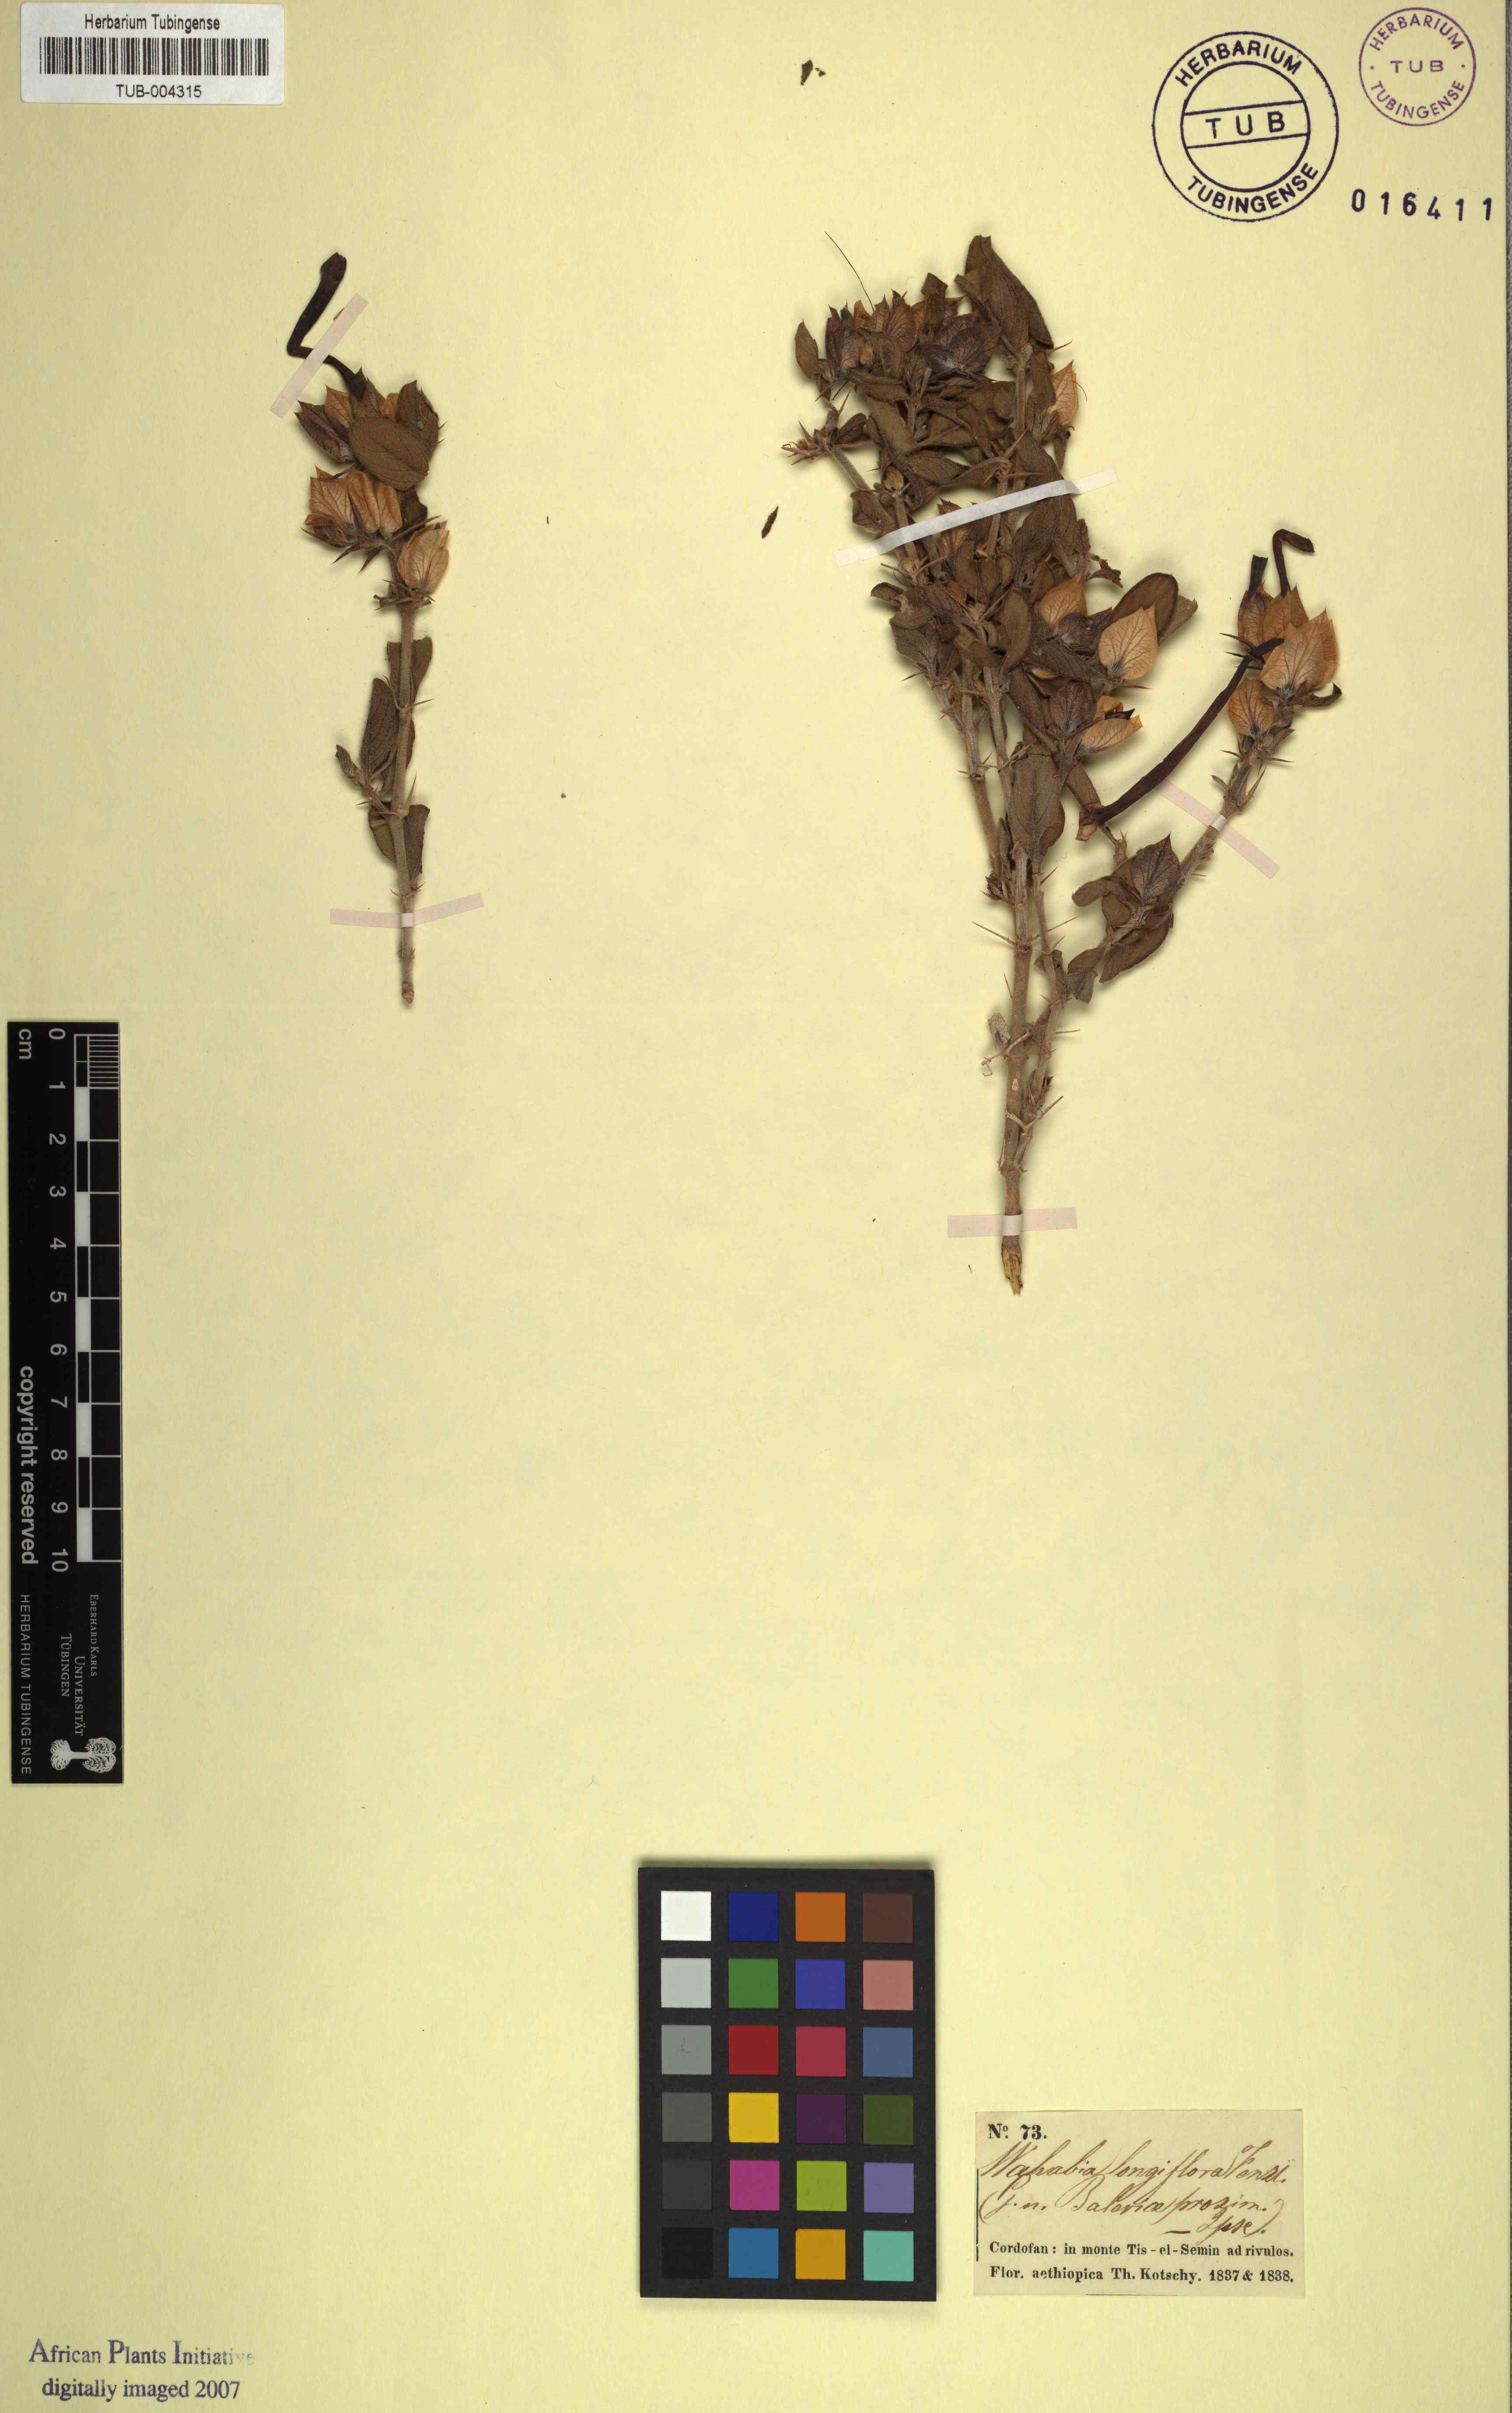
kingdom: Plantae
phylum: Tracheophyta
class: Magnoliopsida
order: Lamiales
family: Acanthaceae
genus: Barleria
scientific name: Barleria acanthoides
